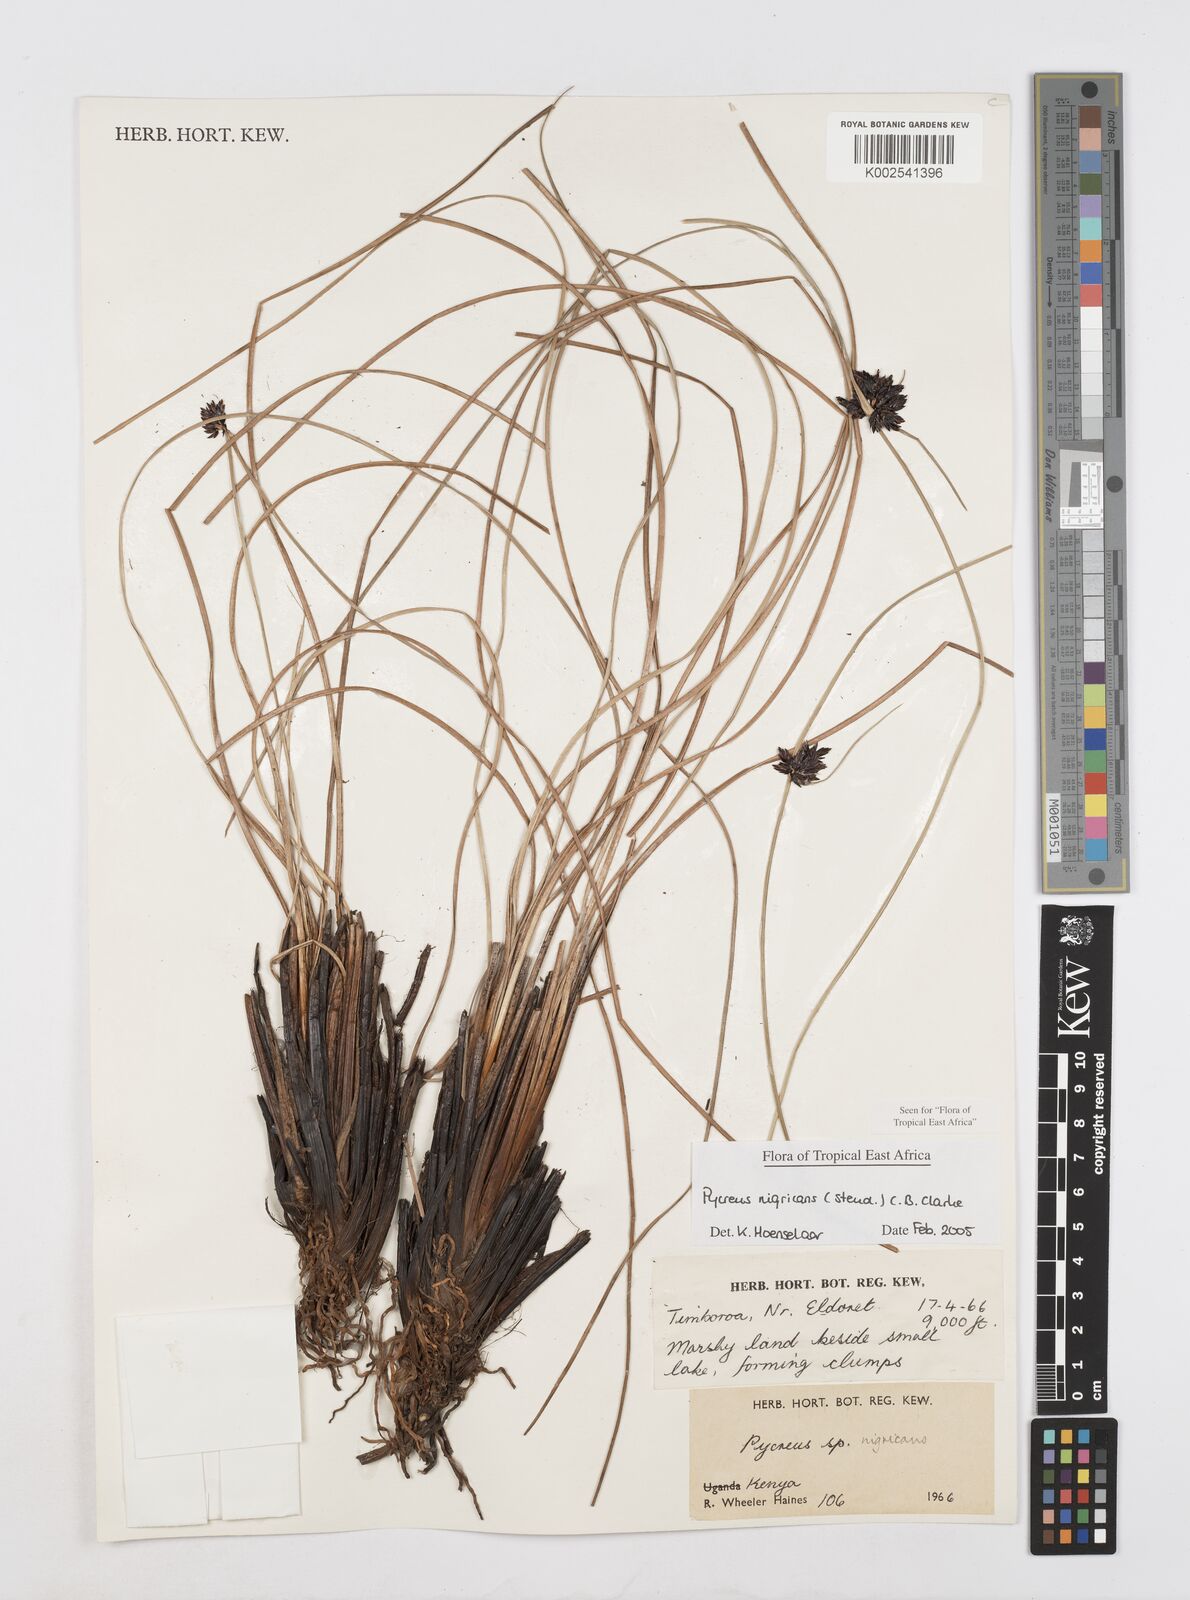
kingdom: Plantae
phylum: Tracheophyta
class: Liliopsida
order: Poales
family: Cyperaceae
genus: Cyperus
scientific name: Cyperus nigricans
